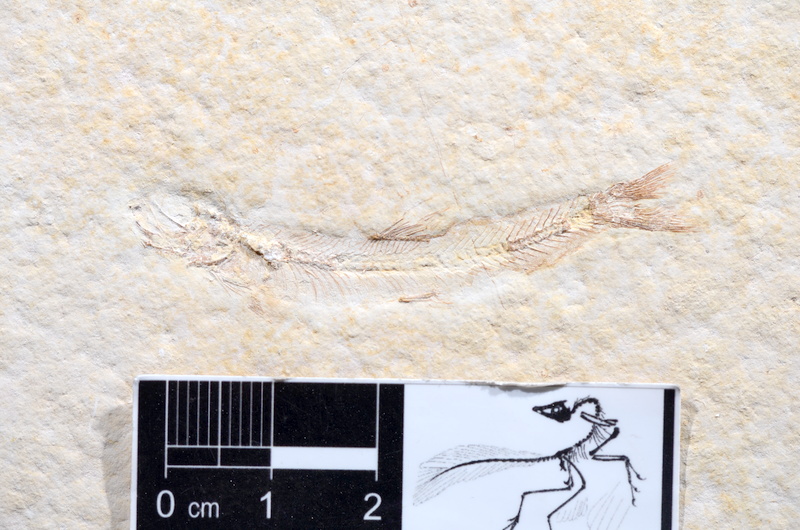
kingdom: Animalia
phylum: Chordata
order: Salmoniformes
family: Orthogonikleithridae
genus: Leptolepides
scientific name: Leptolepides sprattiformis
